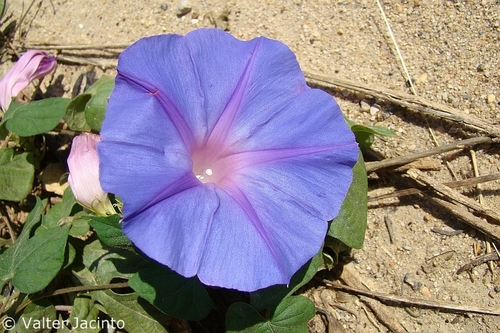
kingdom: Plantae
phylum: Tracheophyta
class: Magnoliopsida
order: Solanales
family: Convolvulaceae
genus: Ipomoea
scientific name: Ipomoea indica
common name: Blue dawnflower
